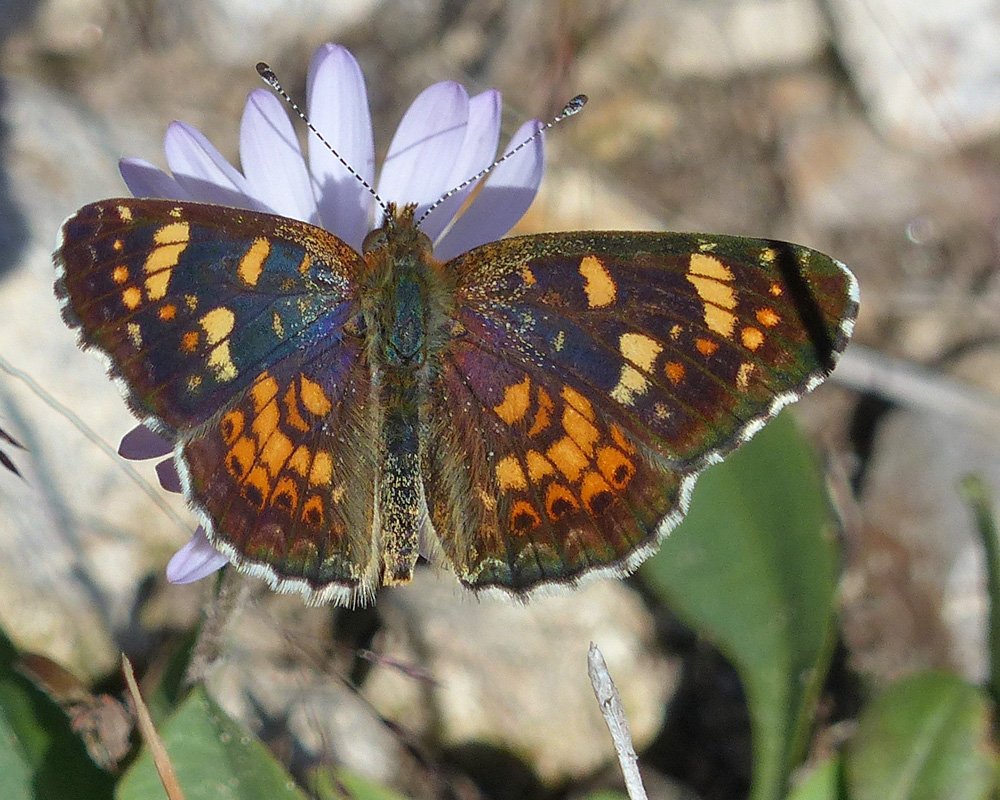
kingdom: Animalia
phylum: Arthropoda
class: Insecta
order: Lepidoptera
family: Nymphalidae
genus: Phyciodes
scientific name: Phyciodes tharos
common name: Field Crescent
